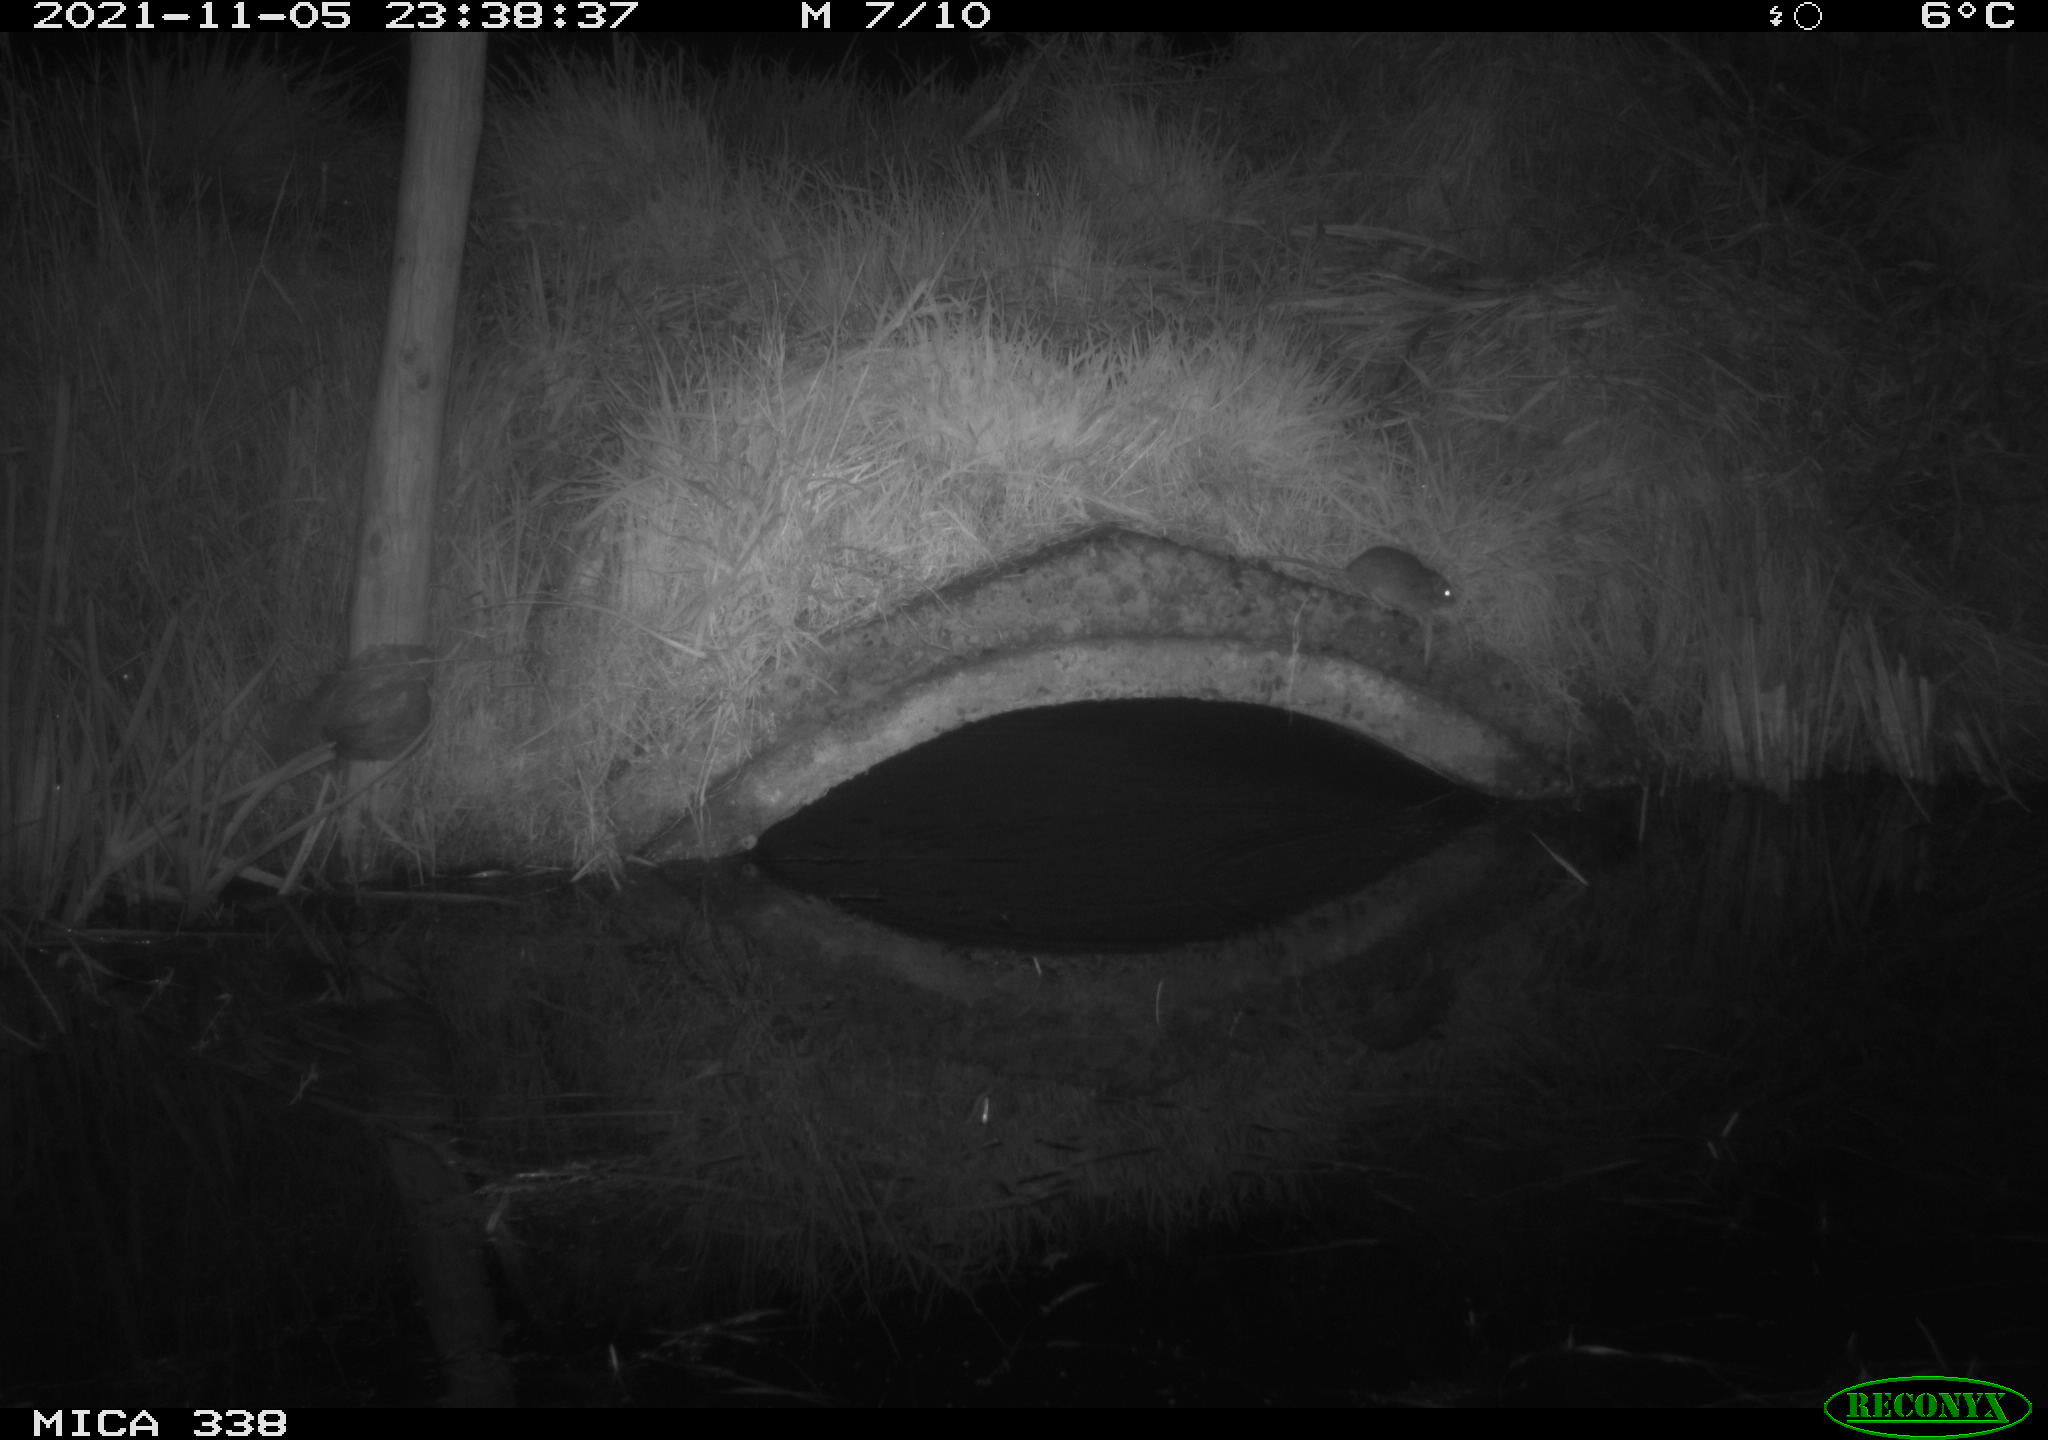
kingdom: Animalia
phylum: Chordata
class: Mammalia
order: Rodentia
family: Muridae
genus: Rattus
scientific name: Rattus norvegicus
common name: Brown rat
